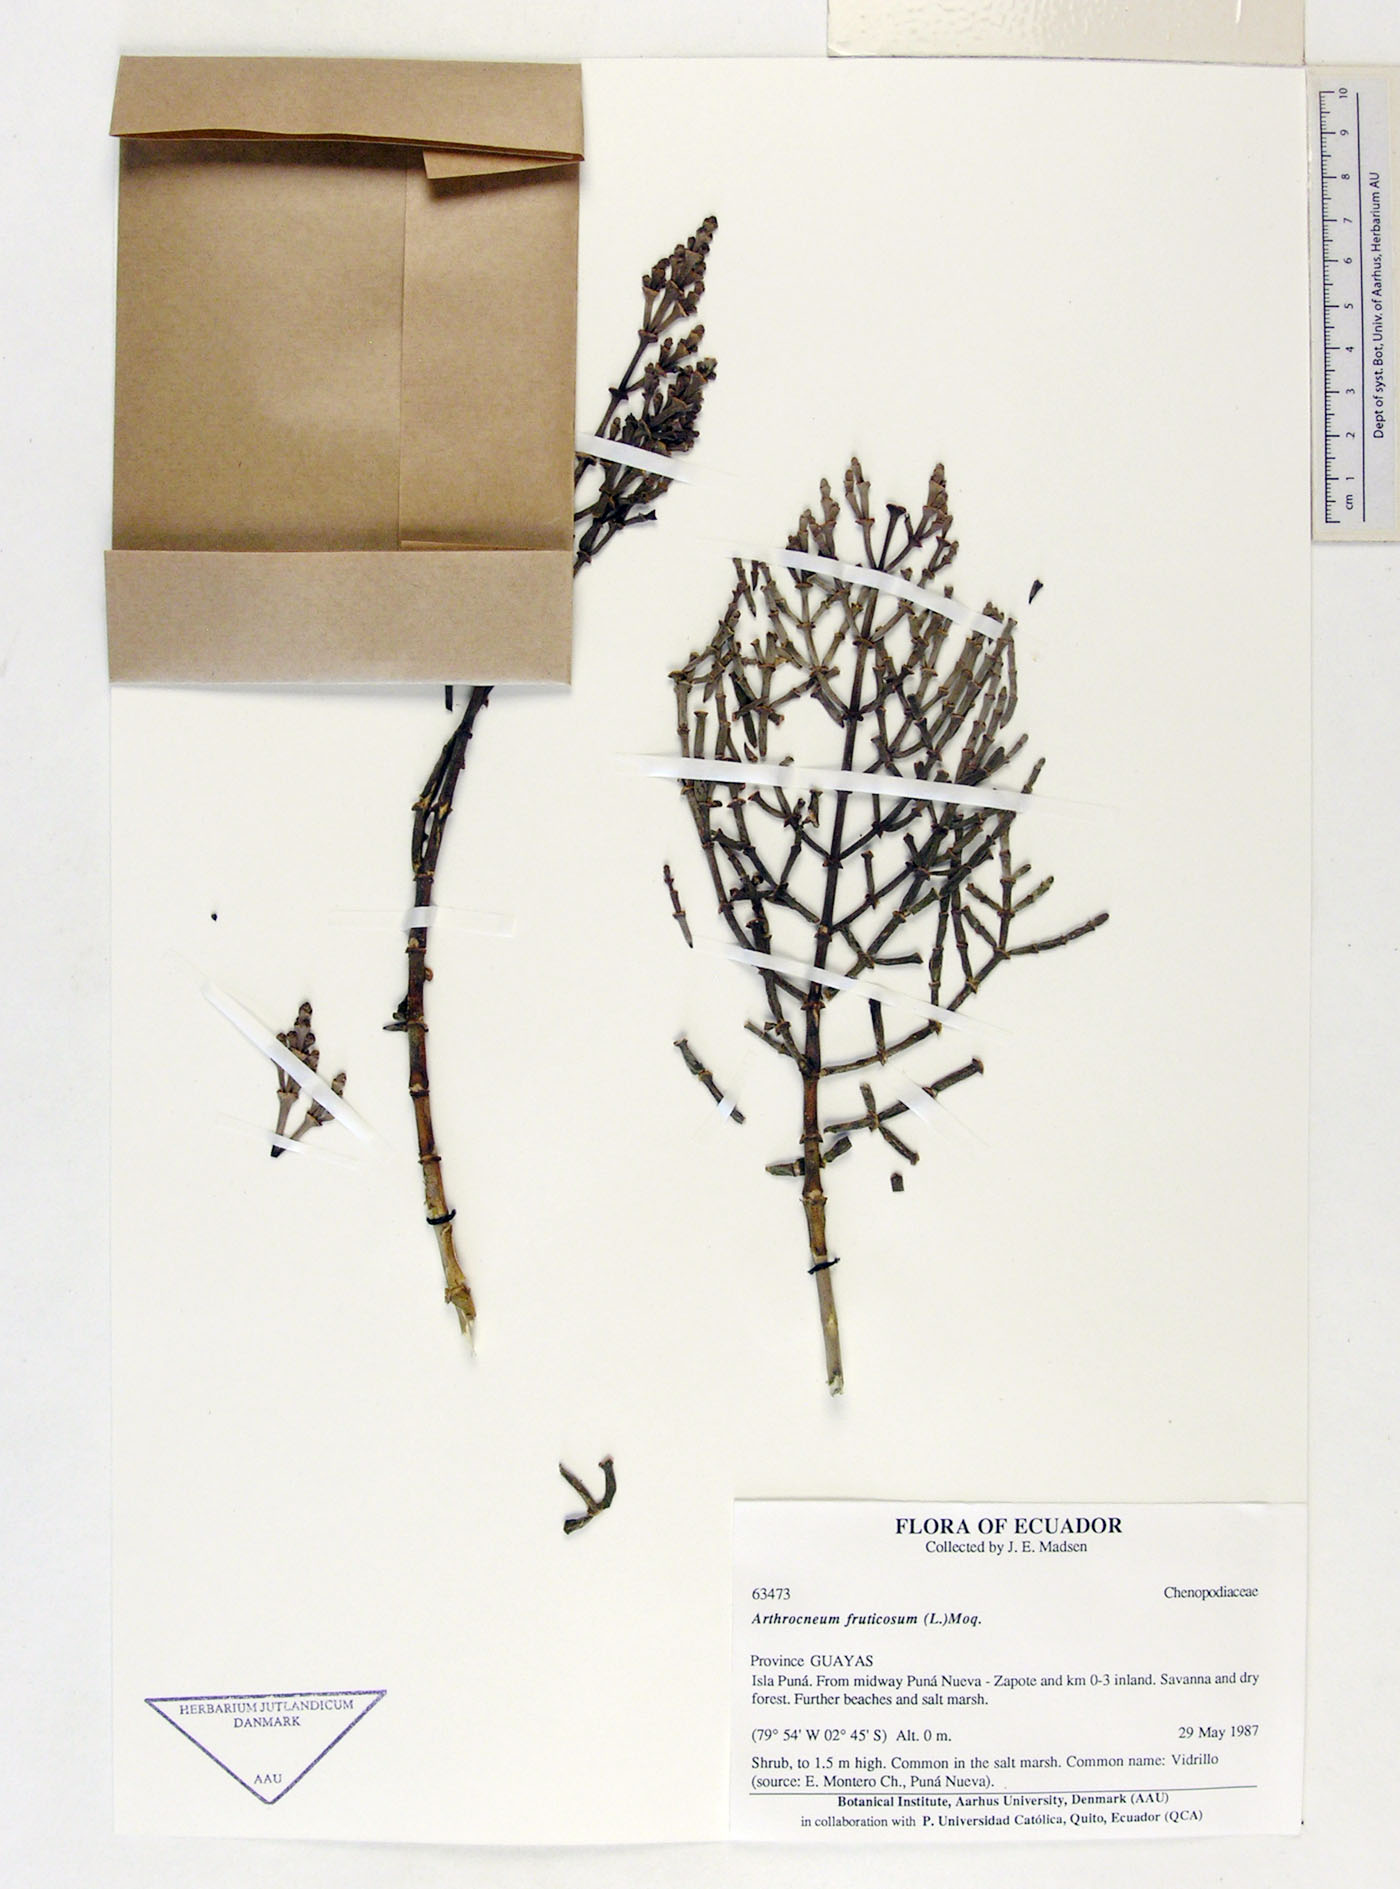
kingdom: Plantae
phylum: Tracheophyta
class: Magnoliopsida
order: Caryophyllales
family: Amaranthaceae
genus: Mangleticornia
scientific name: Mangleticornia ecuadorensis
